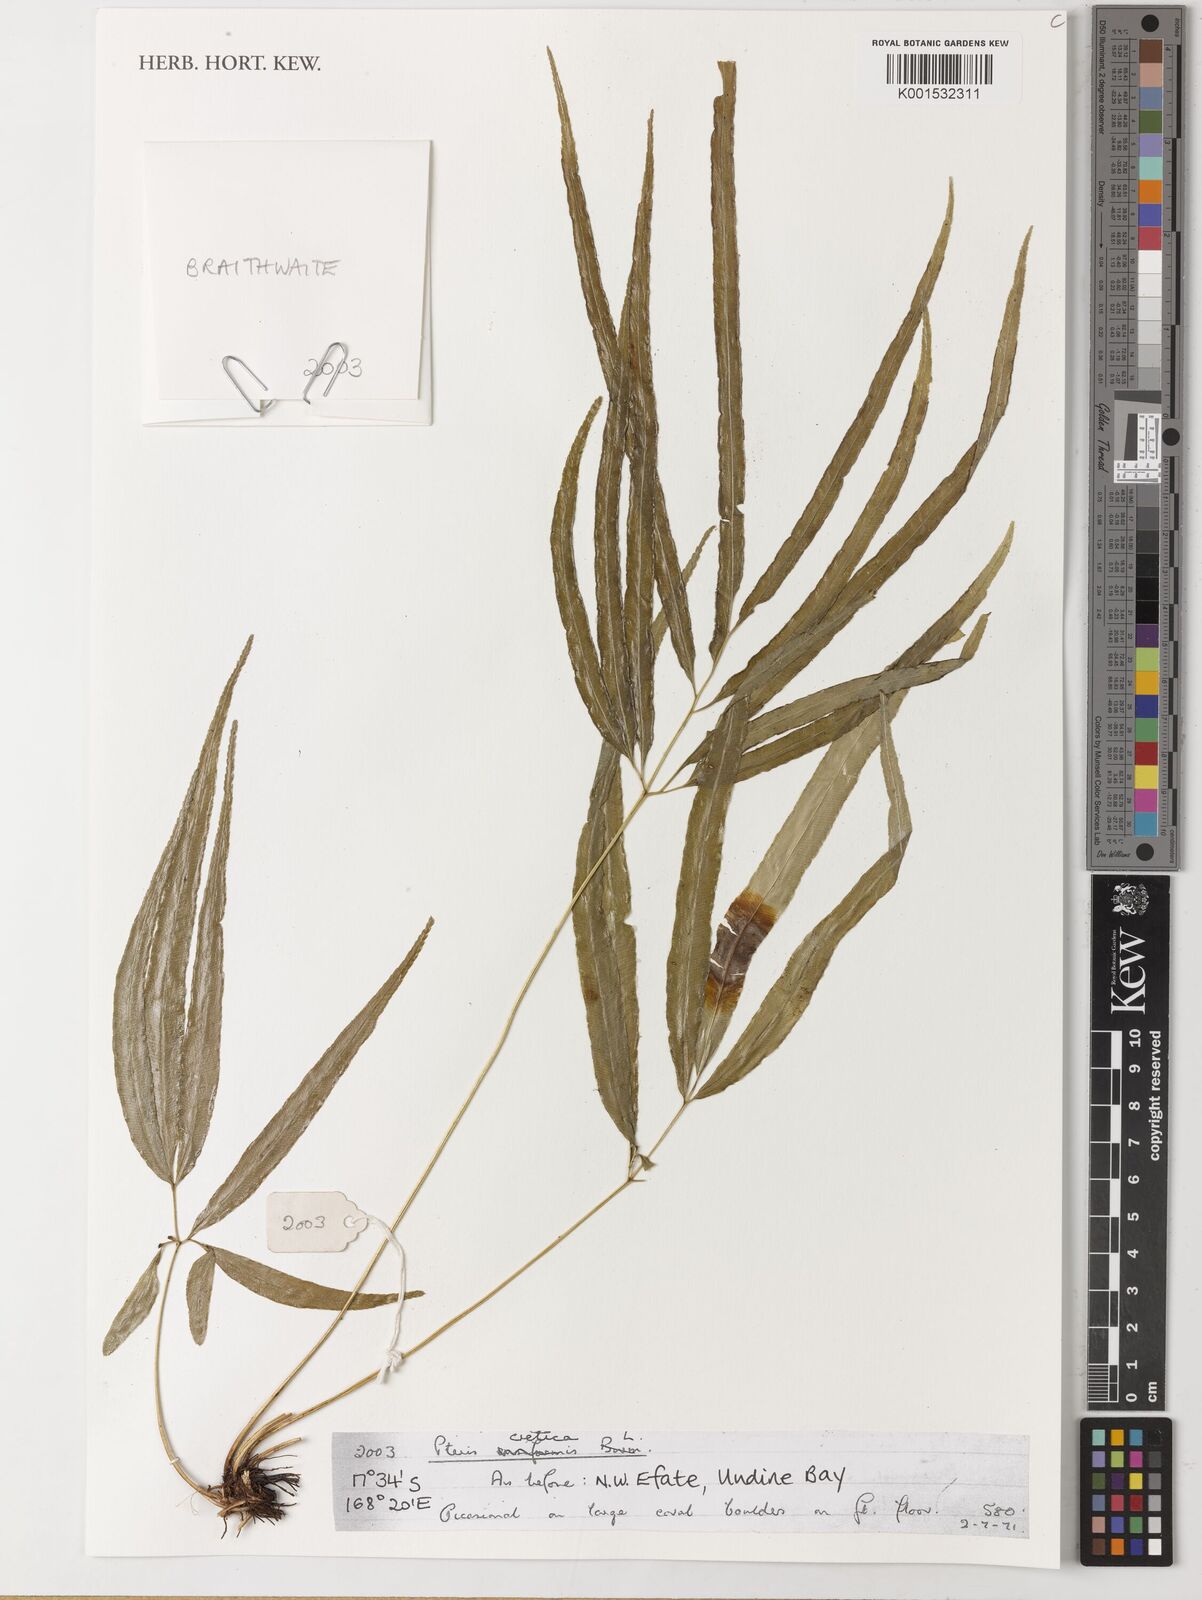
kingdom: Plantae
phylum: Tracheophyta
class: Polypodiopsida
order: Polypodiales
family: Pteridaceae
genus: Pteris
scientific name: Pteris cretica
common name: Ribbon fern
